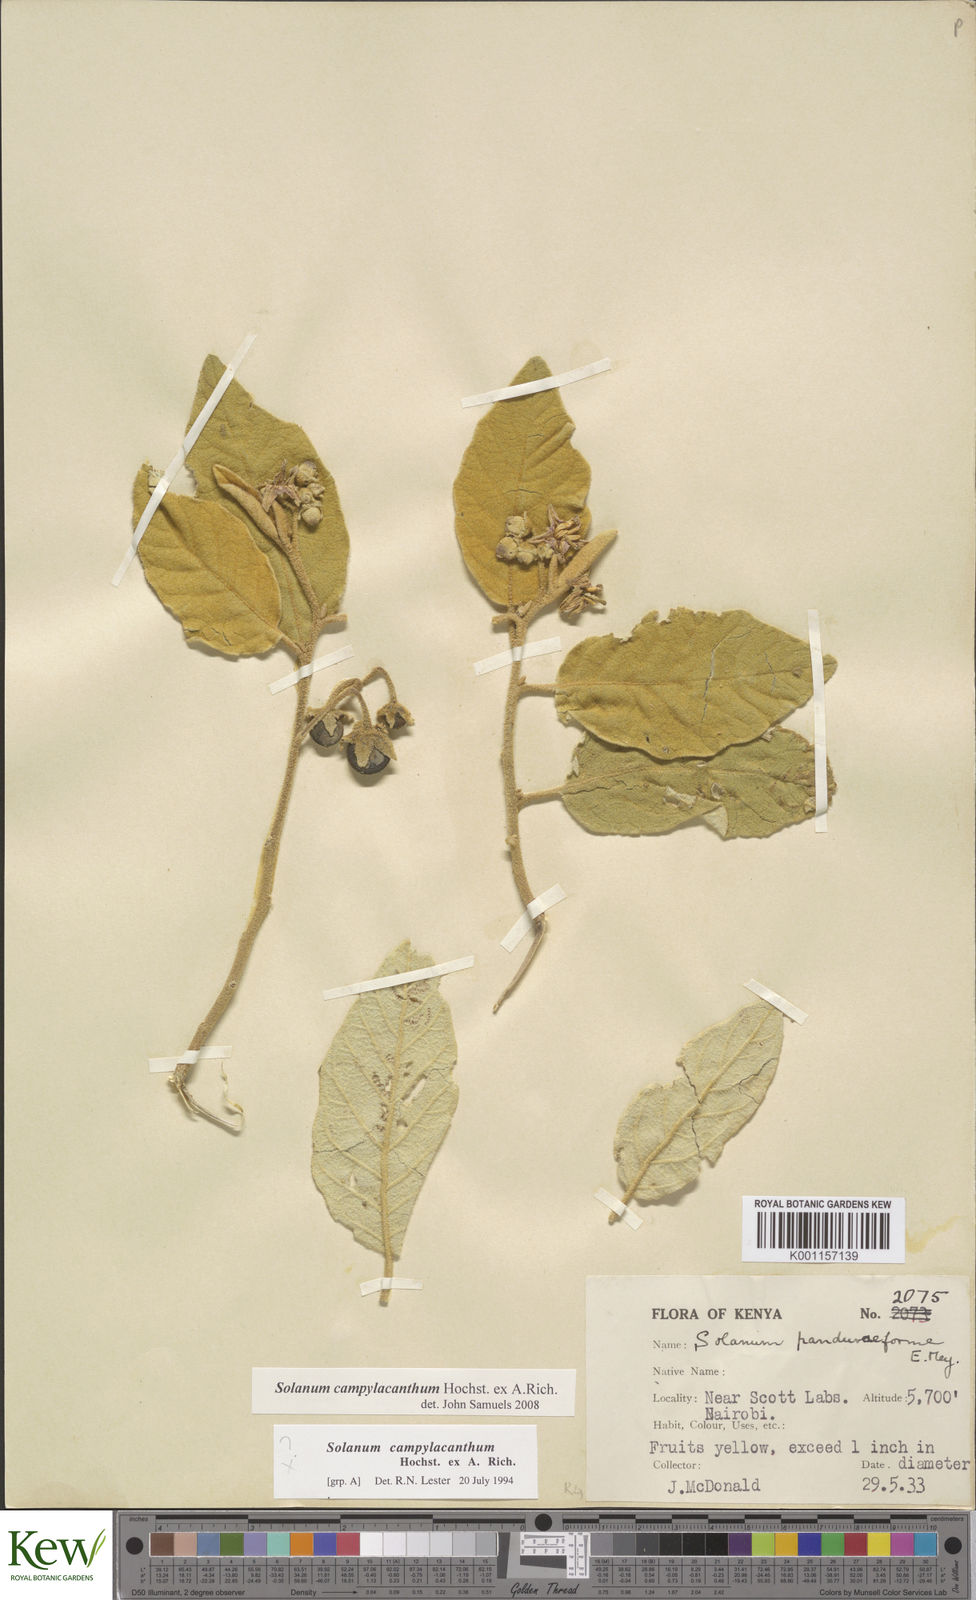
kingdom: Plantae
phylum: Tracheophyta
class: Magnoliopsida
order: Solanales
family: Solanaceae
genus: Solanum
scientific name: Solanum campylacanthum
